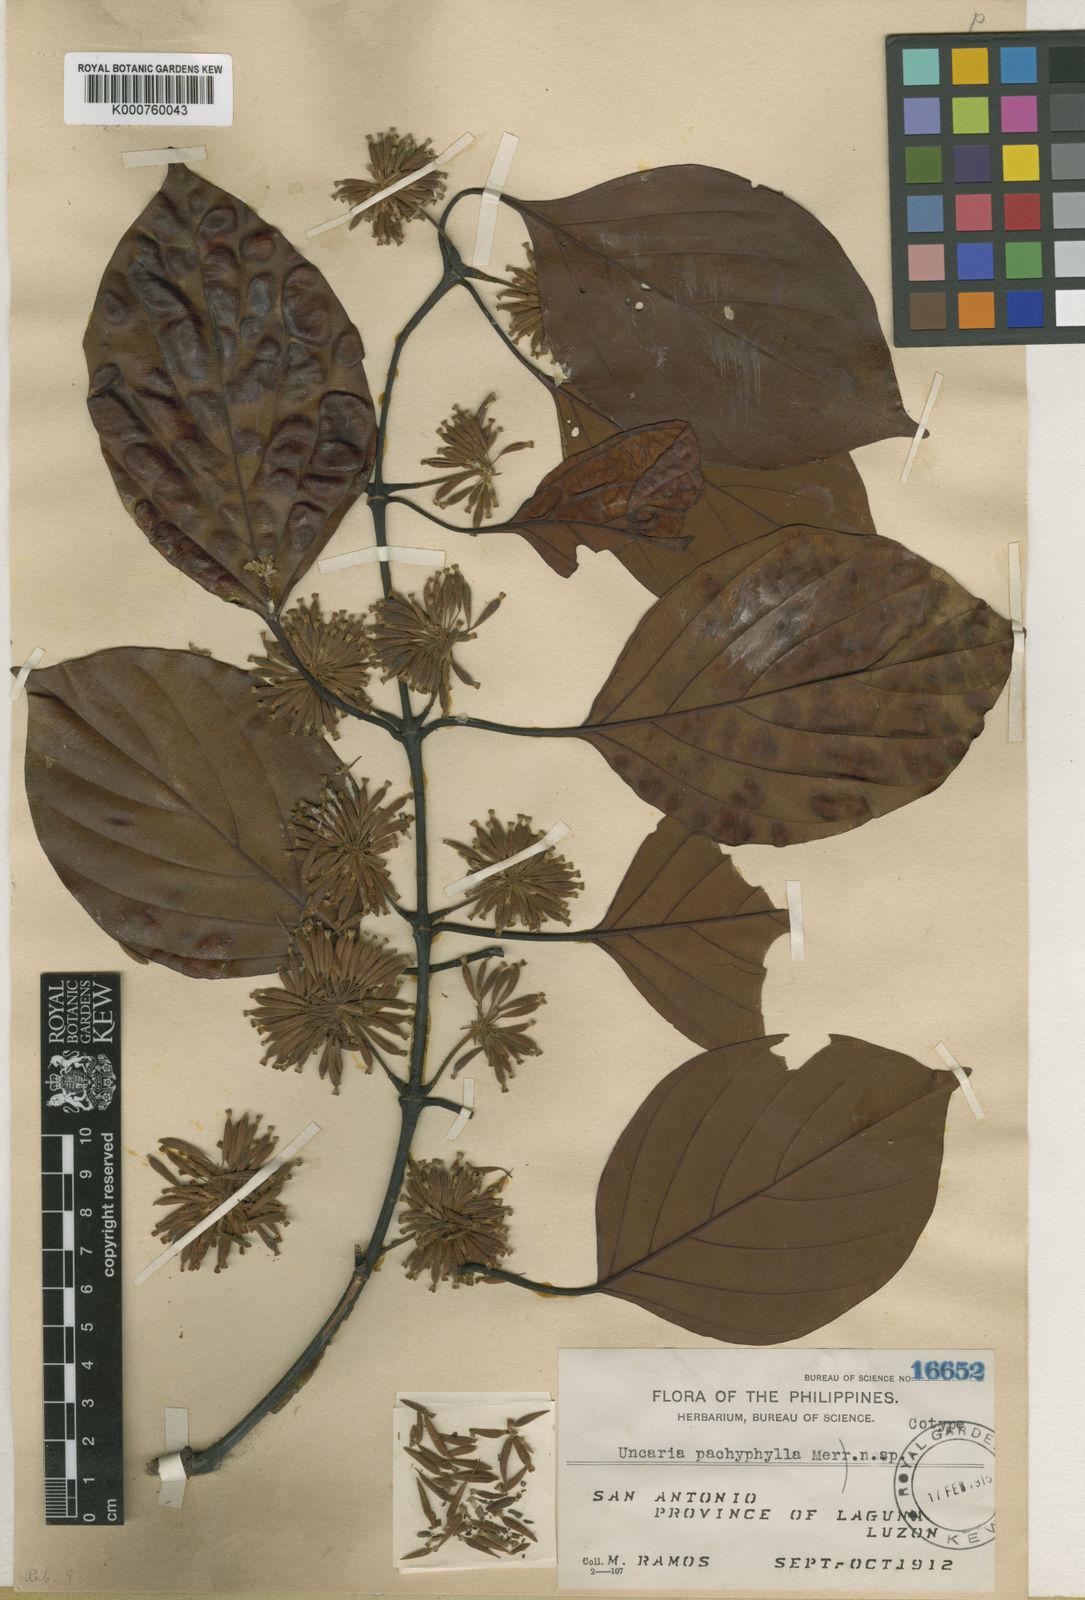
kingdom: Plantae
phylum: Tracheophyta
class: Magnoliopsida
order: Gentianales
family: Rubiaceae
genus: Uncaria
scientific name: Uncaria longiflora
